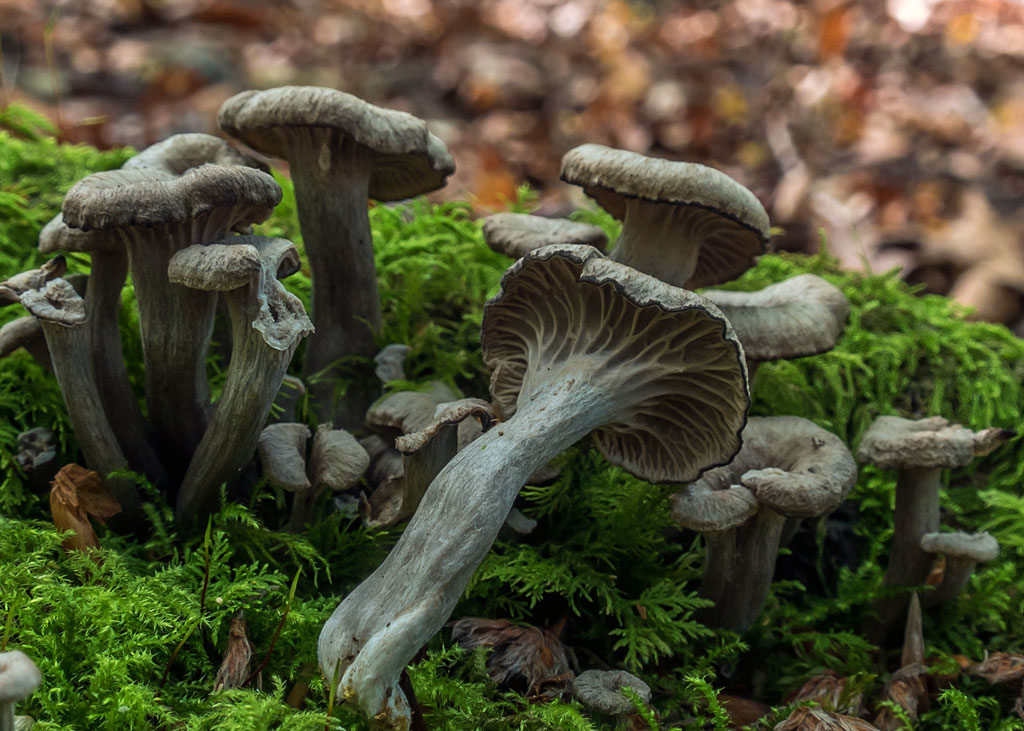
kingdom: Fungi
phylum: Basidiomycota
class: Agaricomycetes
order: Cantharellales
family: Hydnaceae
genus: Cantharellus
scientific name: Cantharellus cinereus
